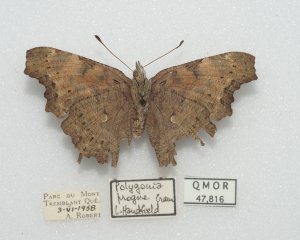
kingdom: Animalia
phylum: Arthropoda
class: Insecta
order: Lepidoptera
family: Nymphalidae
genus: Polygonia
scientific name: Polygonia comma
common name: Eastern Comma
